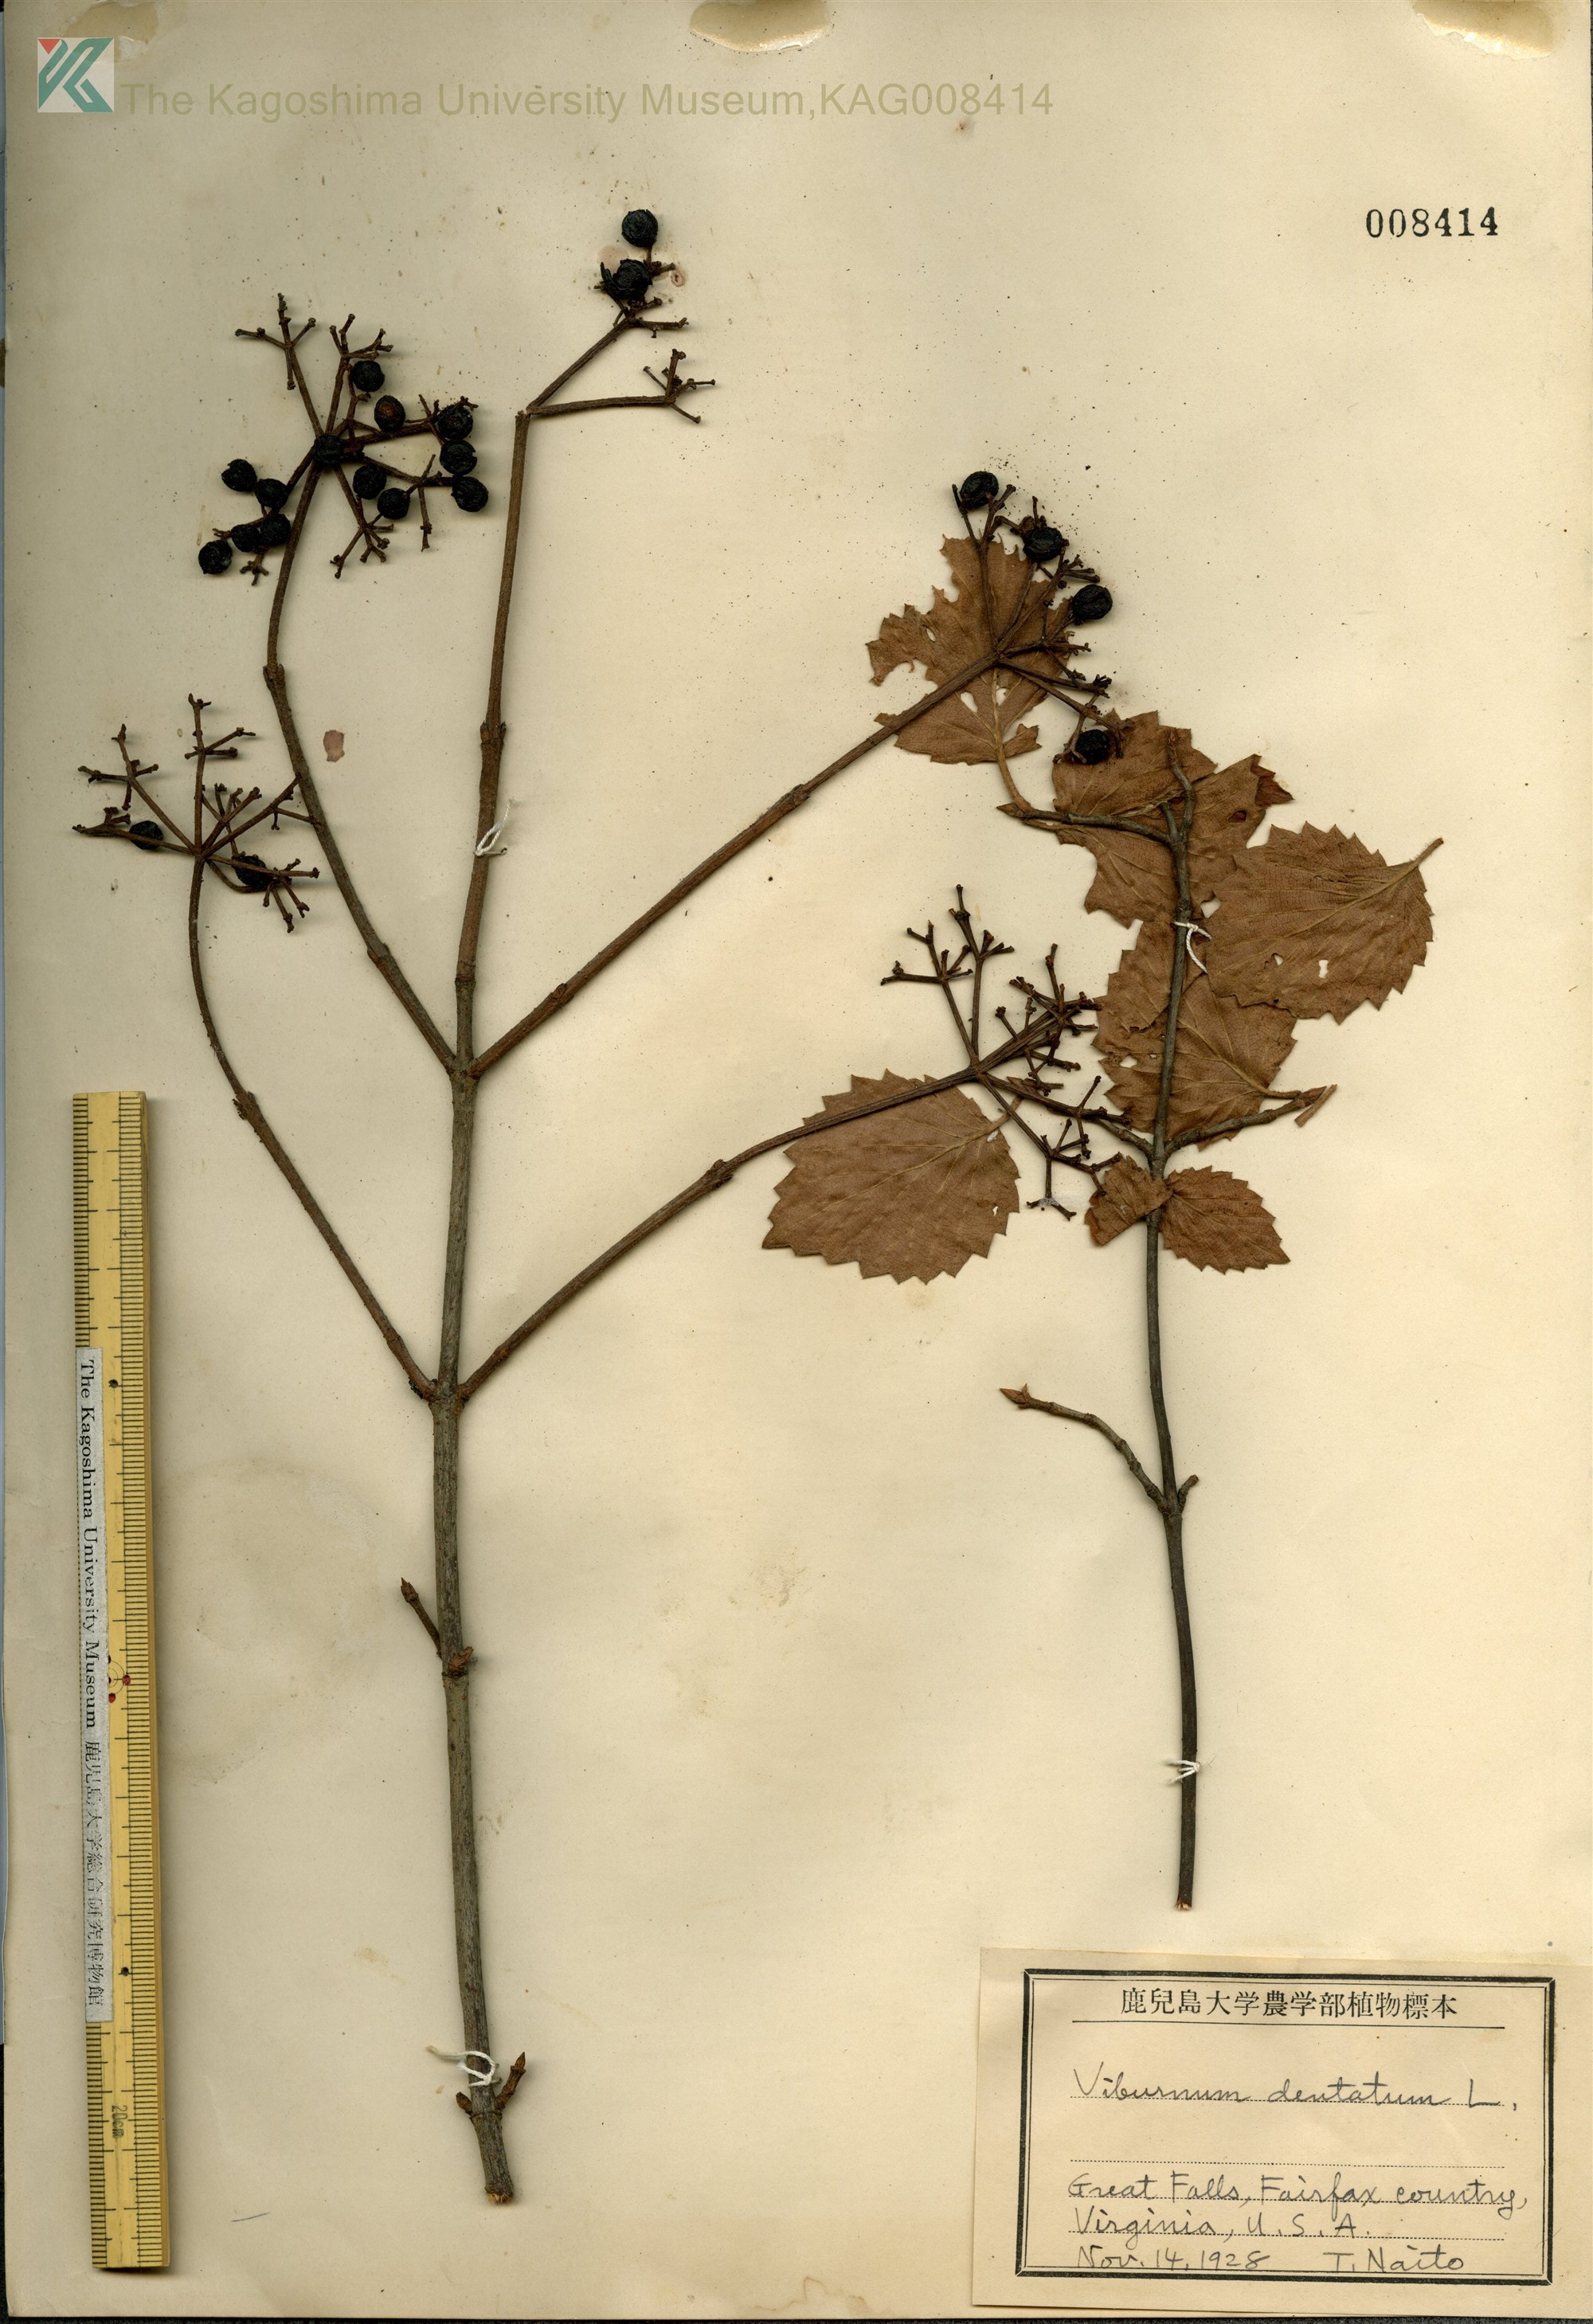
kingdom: Plantae
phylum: Tracheophyta
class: Magnoliopsida
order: Dipsacales
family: Viburnaceae
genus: Viburnum
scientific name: Viburnum dentatum
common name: Arrow-wood
